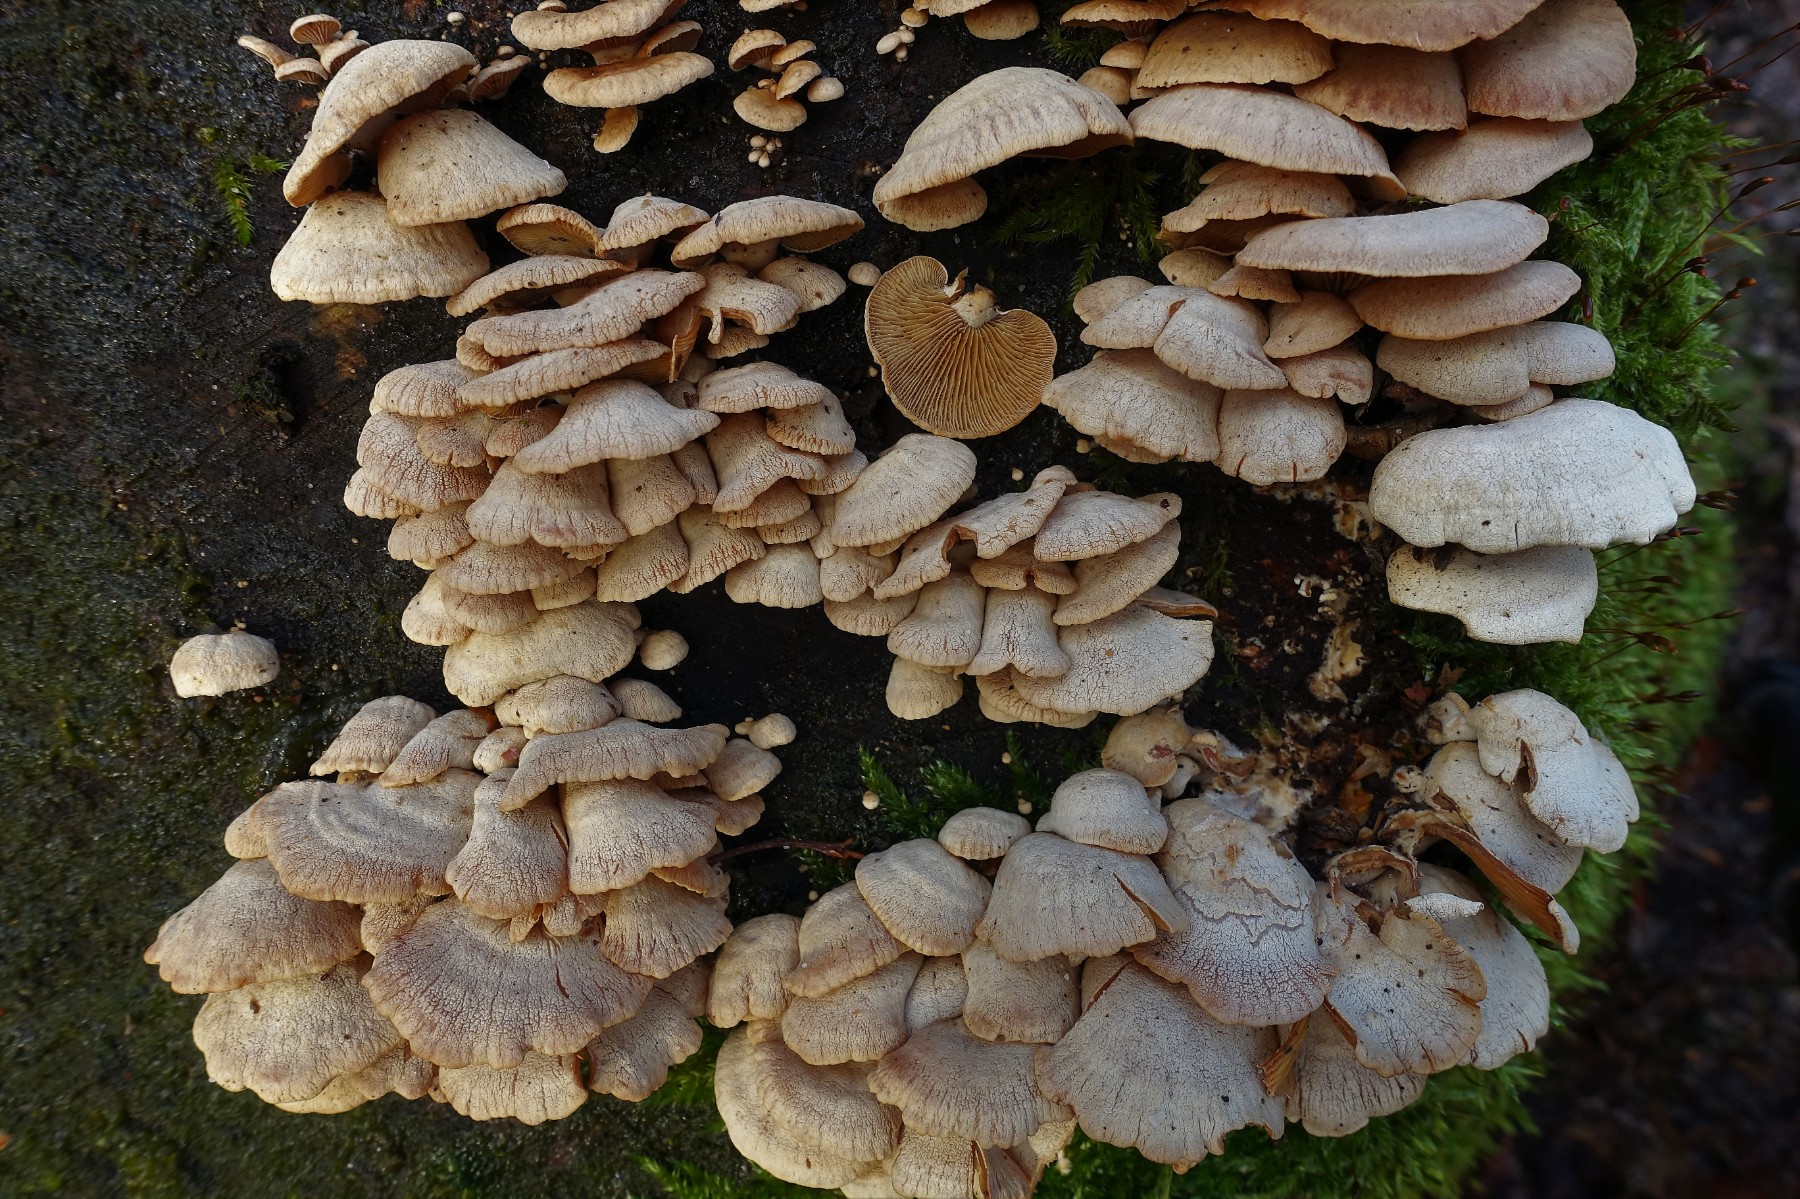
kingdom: Fungi
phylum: Basidiomycota
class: Agaricomycetes
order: Agaricales
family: Mycenaceae
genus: Panellus
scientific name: Panellus stipticus
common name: kliddet epaulethat
